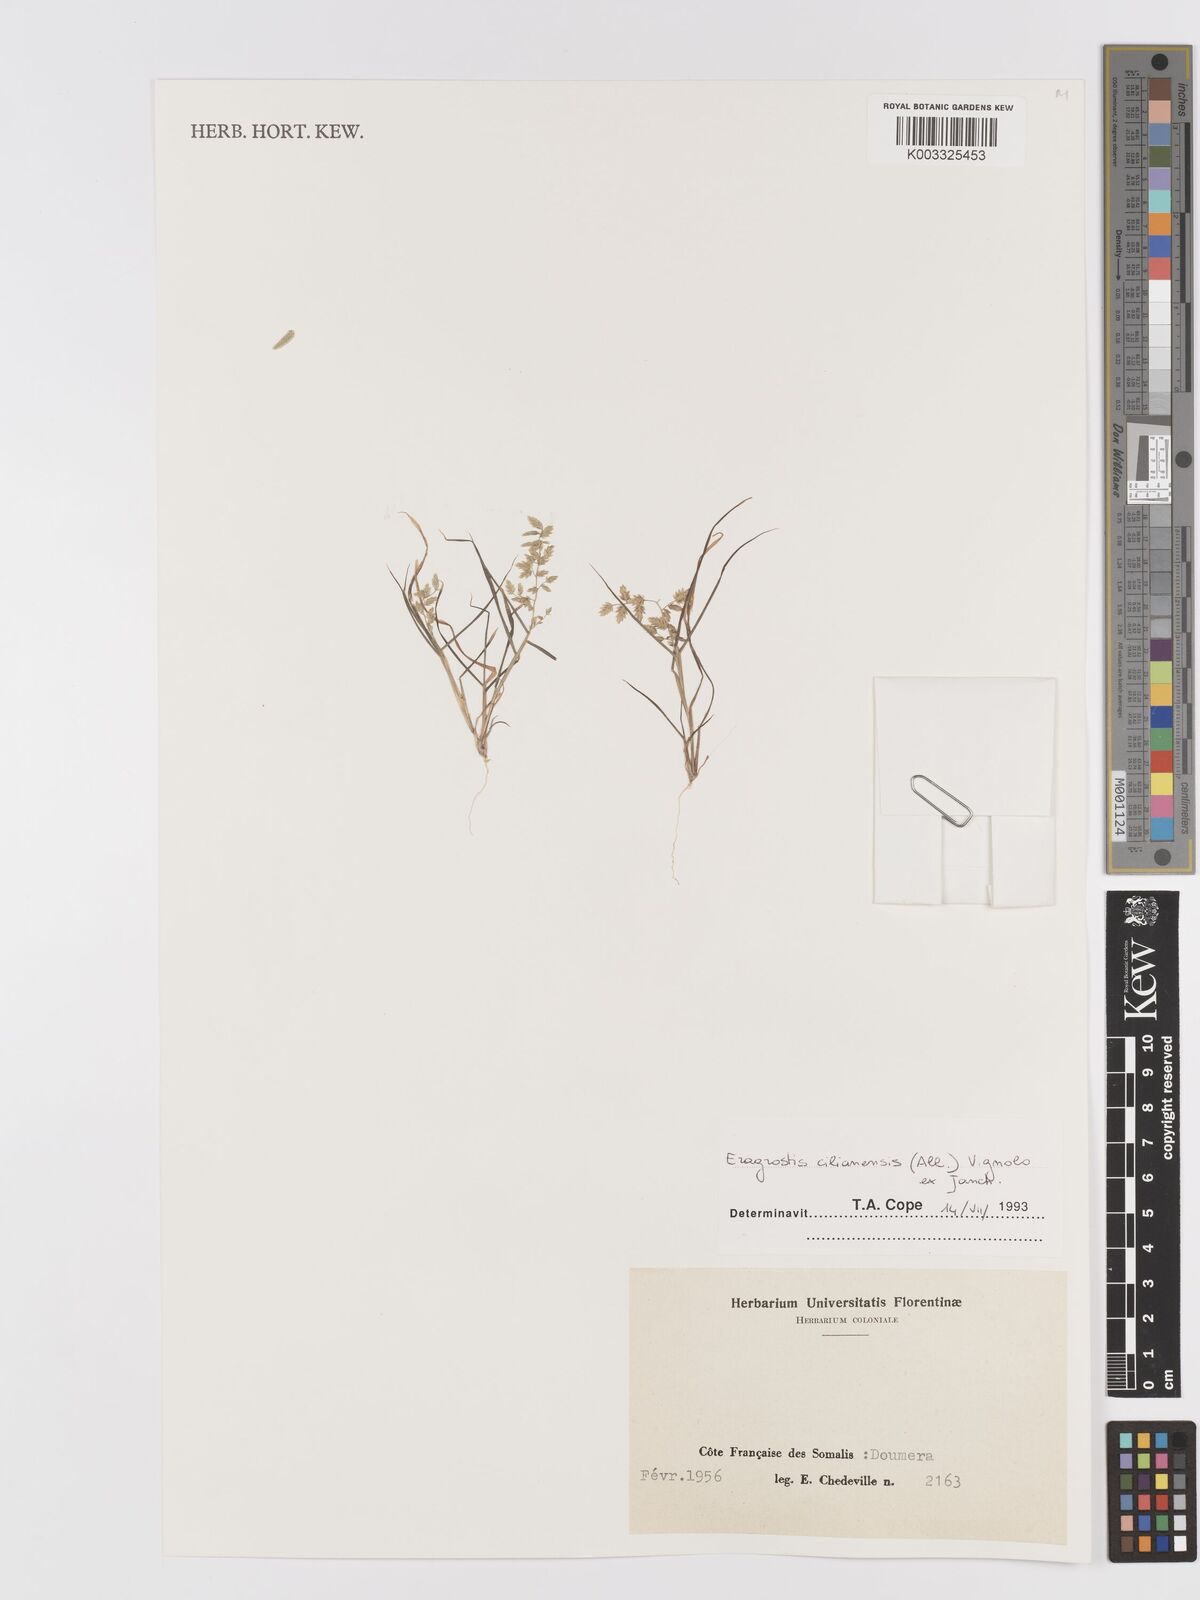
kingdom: Plantae
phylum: Tracheophyta
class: Liliopsida
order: Poales
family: Poaceae
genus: Eragrostis
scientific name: Eragrostis cilianensis
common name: Stinkgrass
